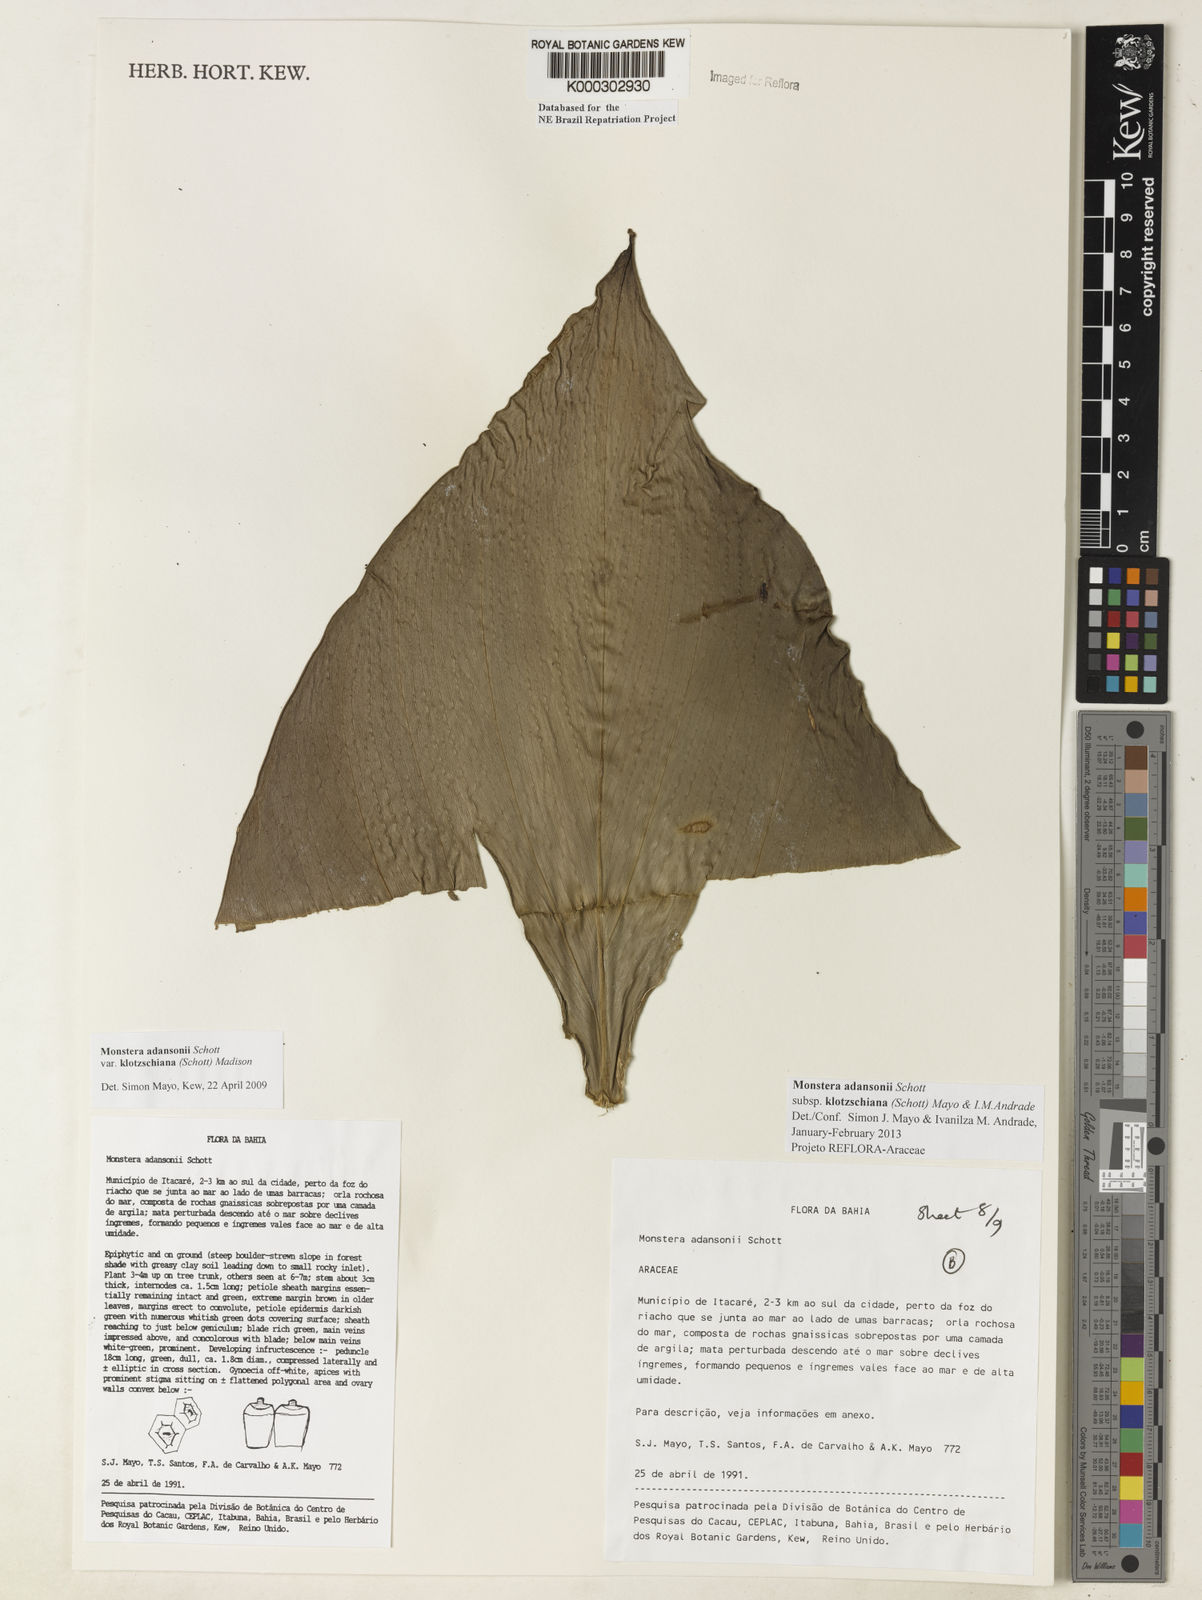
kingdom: Plantae
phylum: Tracheophyta
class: Liliopsida
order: Alismatales
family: Araceae
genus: Monstera
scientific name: Monstera adansonii
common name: Tarovine
